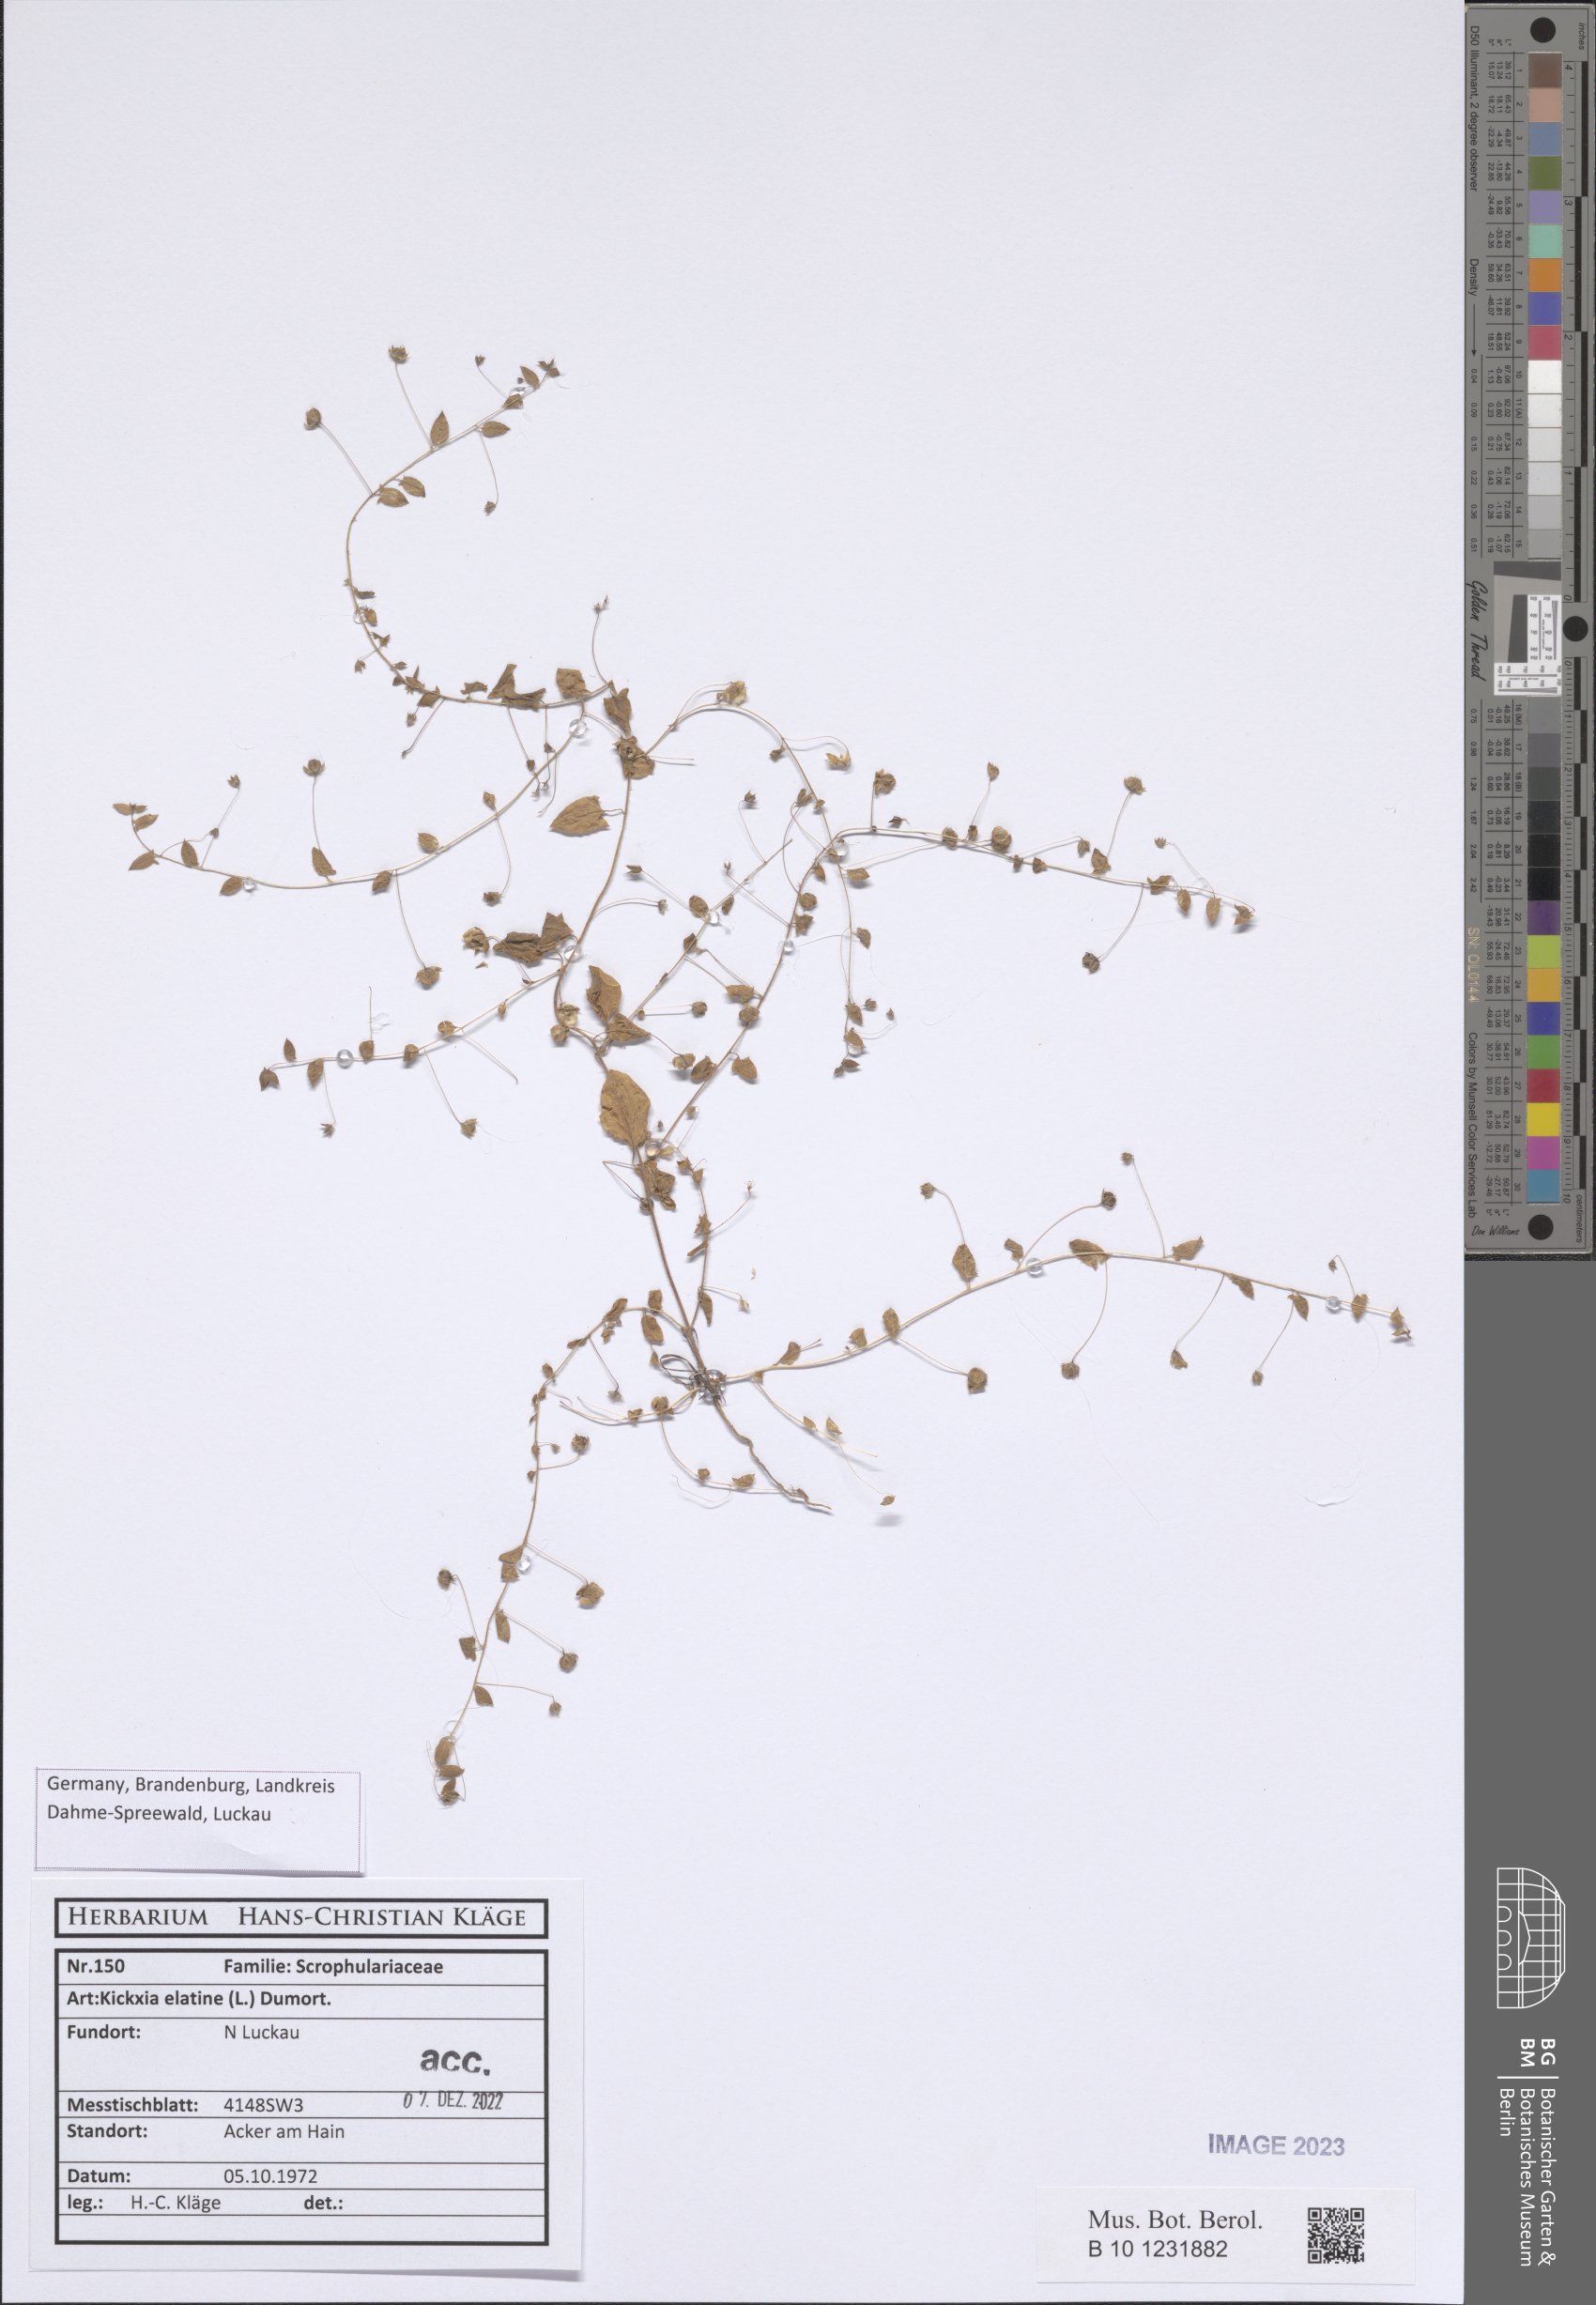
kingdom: Plantae
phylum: Tracheophyta
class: Magnoliopsida
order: Lamiales
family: Plantaginaceae
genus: Kickxia
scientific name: Kickxia elatine
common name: Sharp-leaved fluellen
